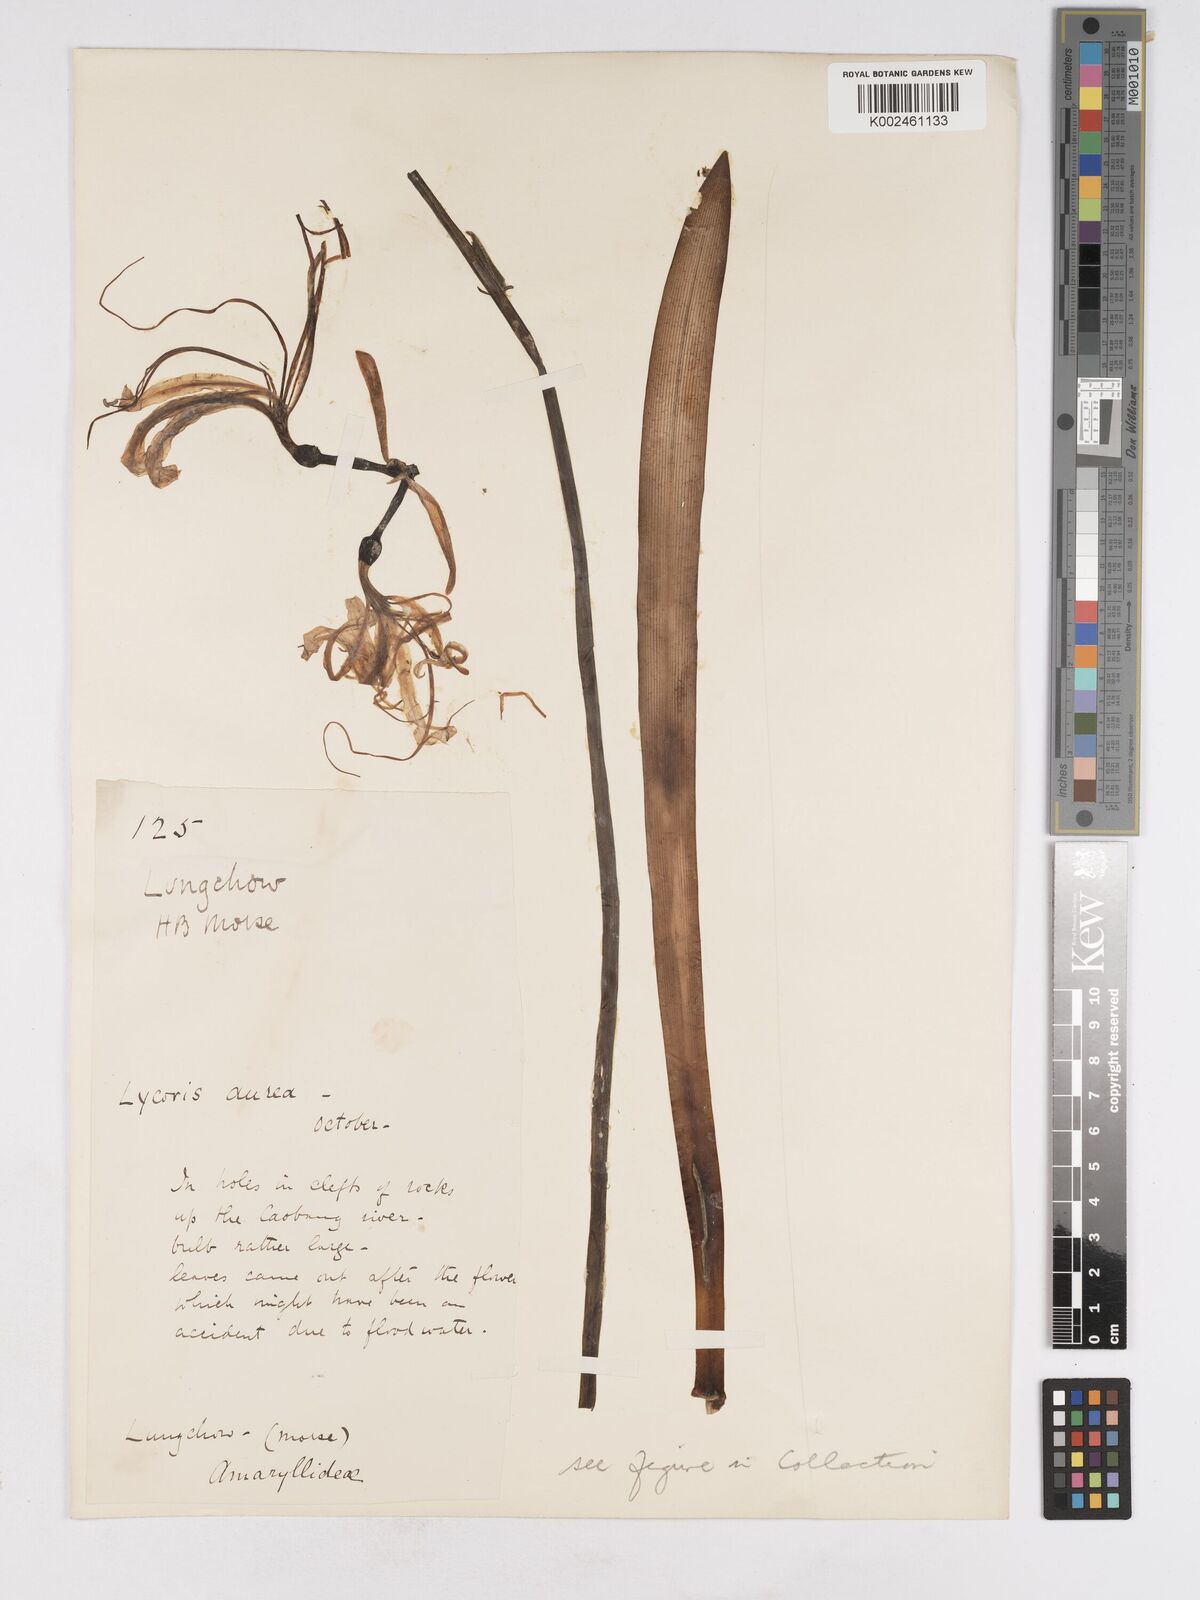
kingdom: Plantae
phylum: Tracheophyta
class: Liliopsida
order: Asparagales
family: Amaryllidaceae
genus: Lycoris
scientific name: Lycoris
